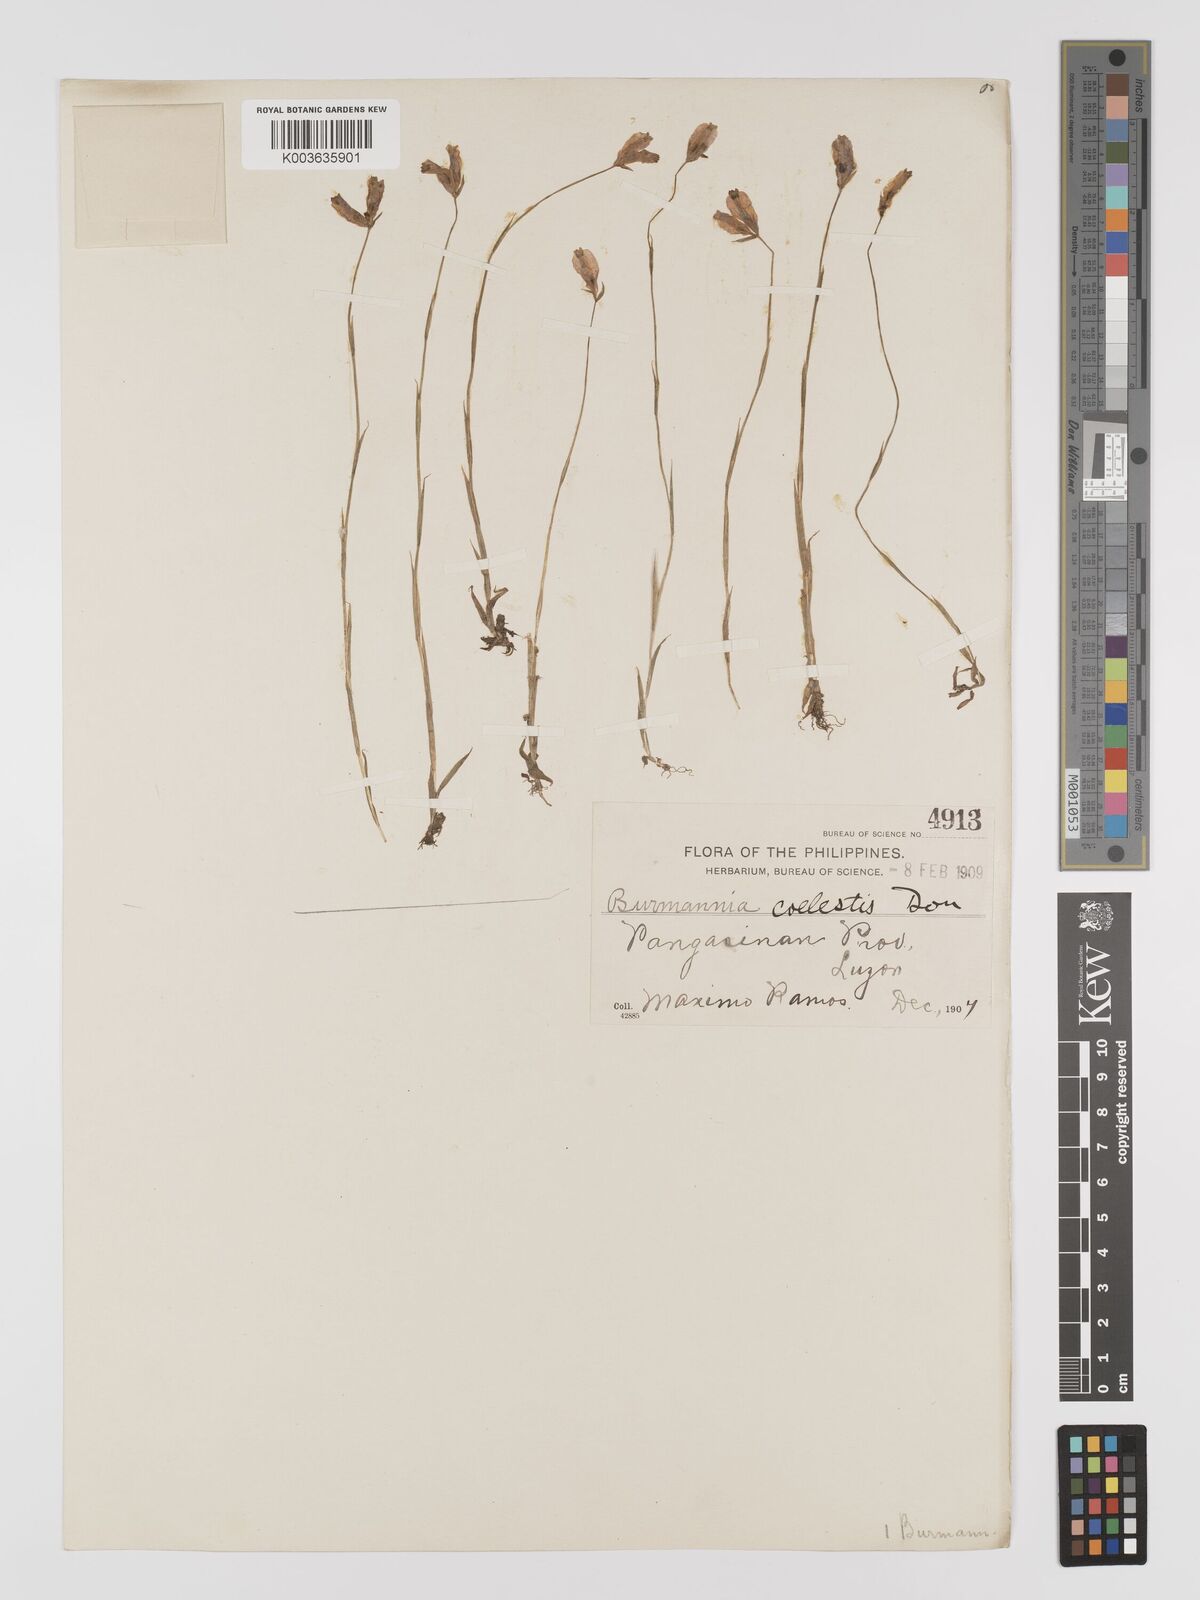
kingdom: Plantae
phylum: Tracheophyta
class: Liliopsida
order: Dioscoreales
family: Burmanniaceae
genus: Burmannia
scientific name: Burmannia coelestis
